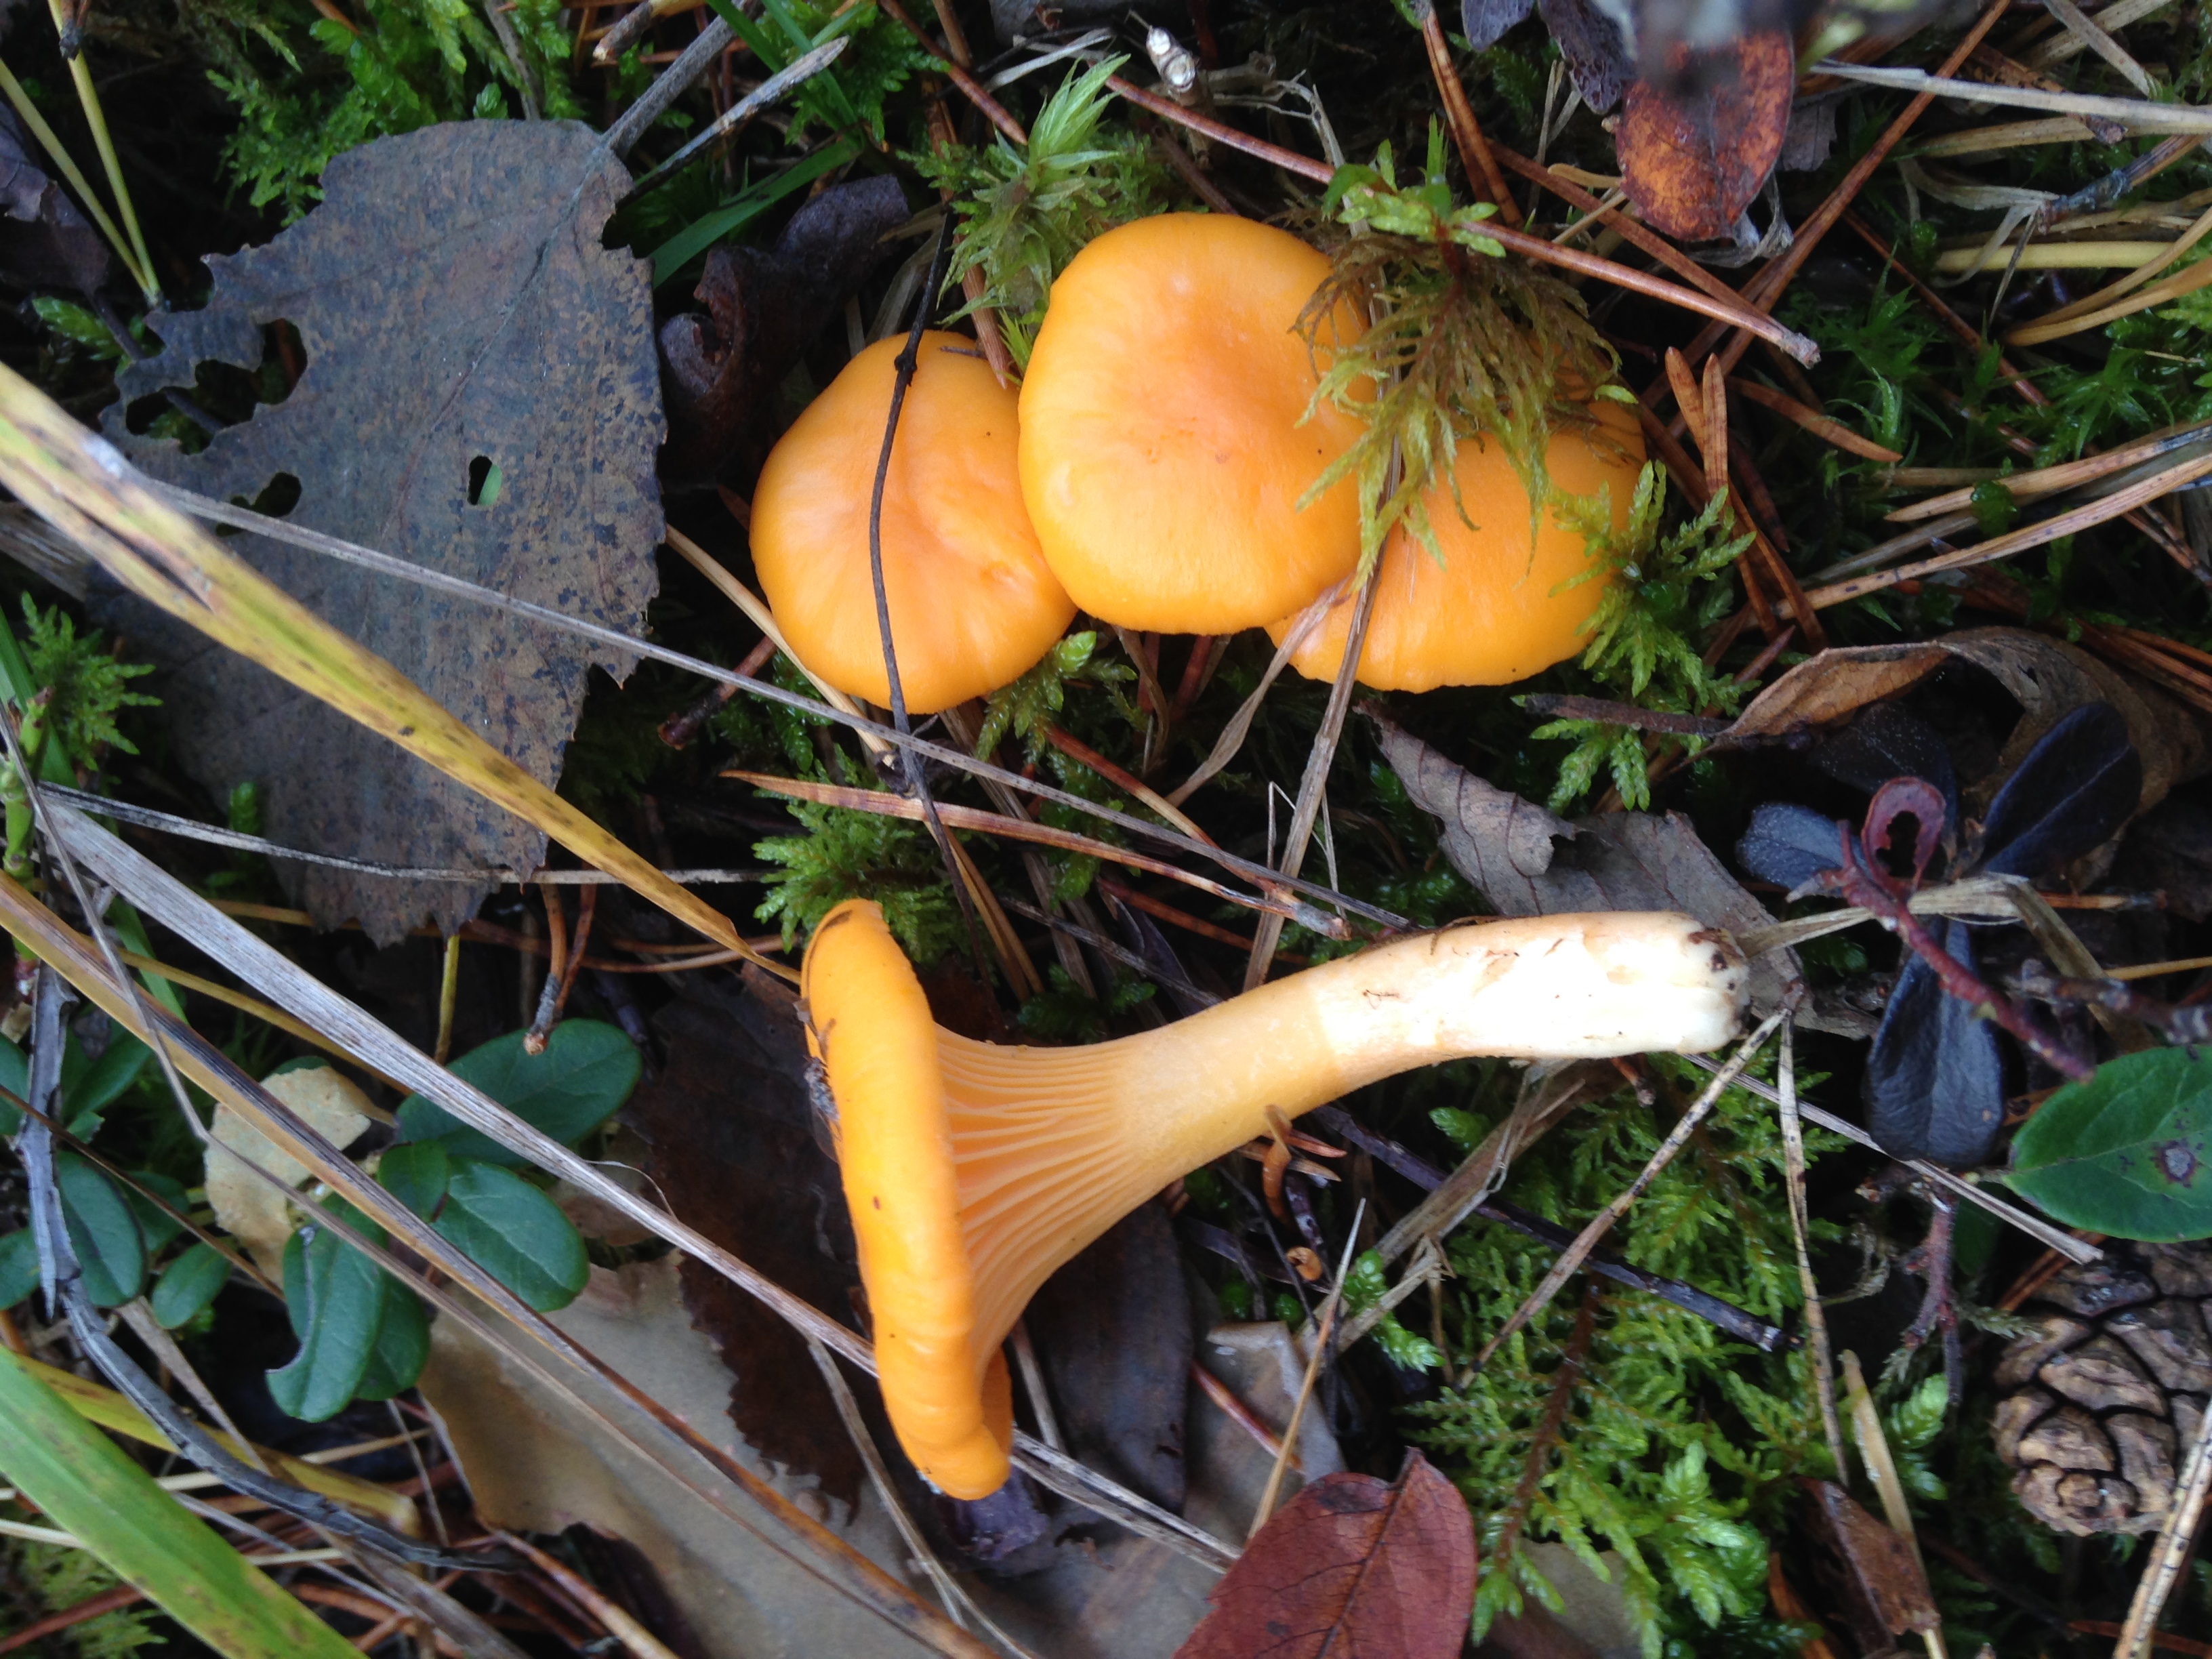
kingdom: Fungi
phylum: Basidiomycota
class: Agaricomycetes
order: Cantharellales
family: Hydnaceae
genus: Cantharellus
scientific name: Cantharellus cibarius
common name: Chanterelle
